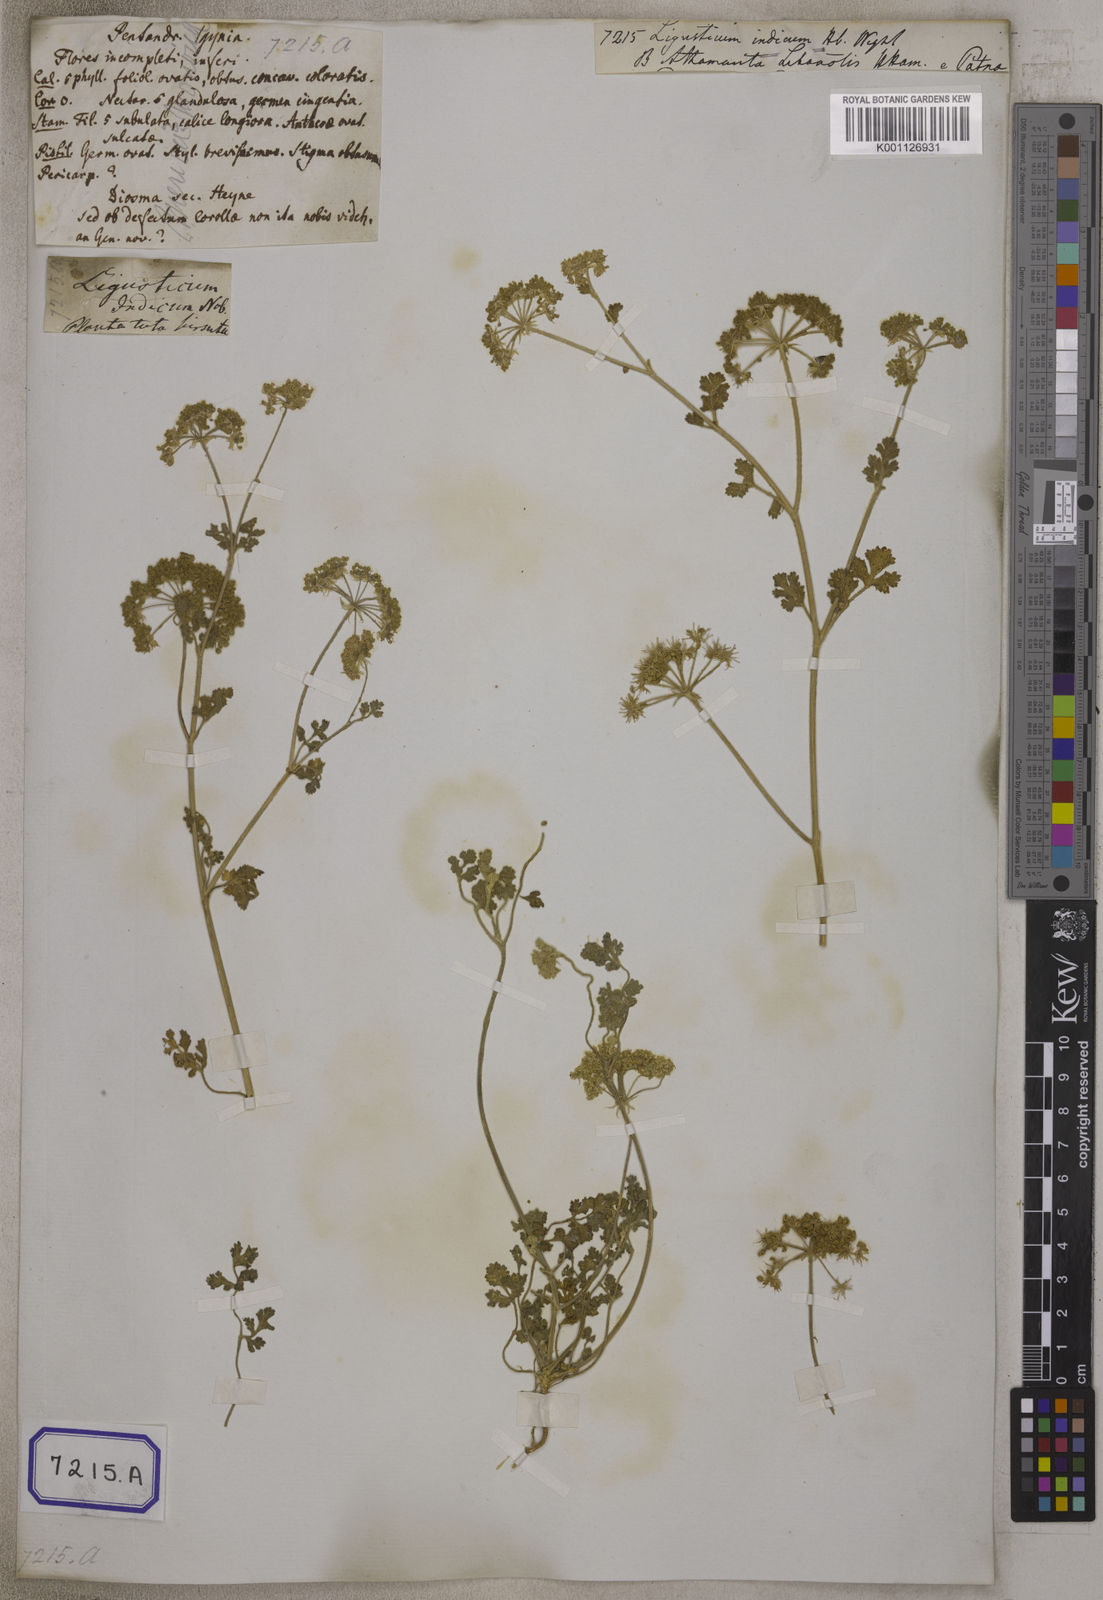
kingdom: Plantae
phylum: Tracheophyta
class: Magnoliopsida
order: Lamiales
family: Oleaceae
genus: Ligustrum
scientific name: Ligustrum sinense
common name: Chinese privet
